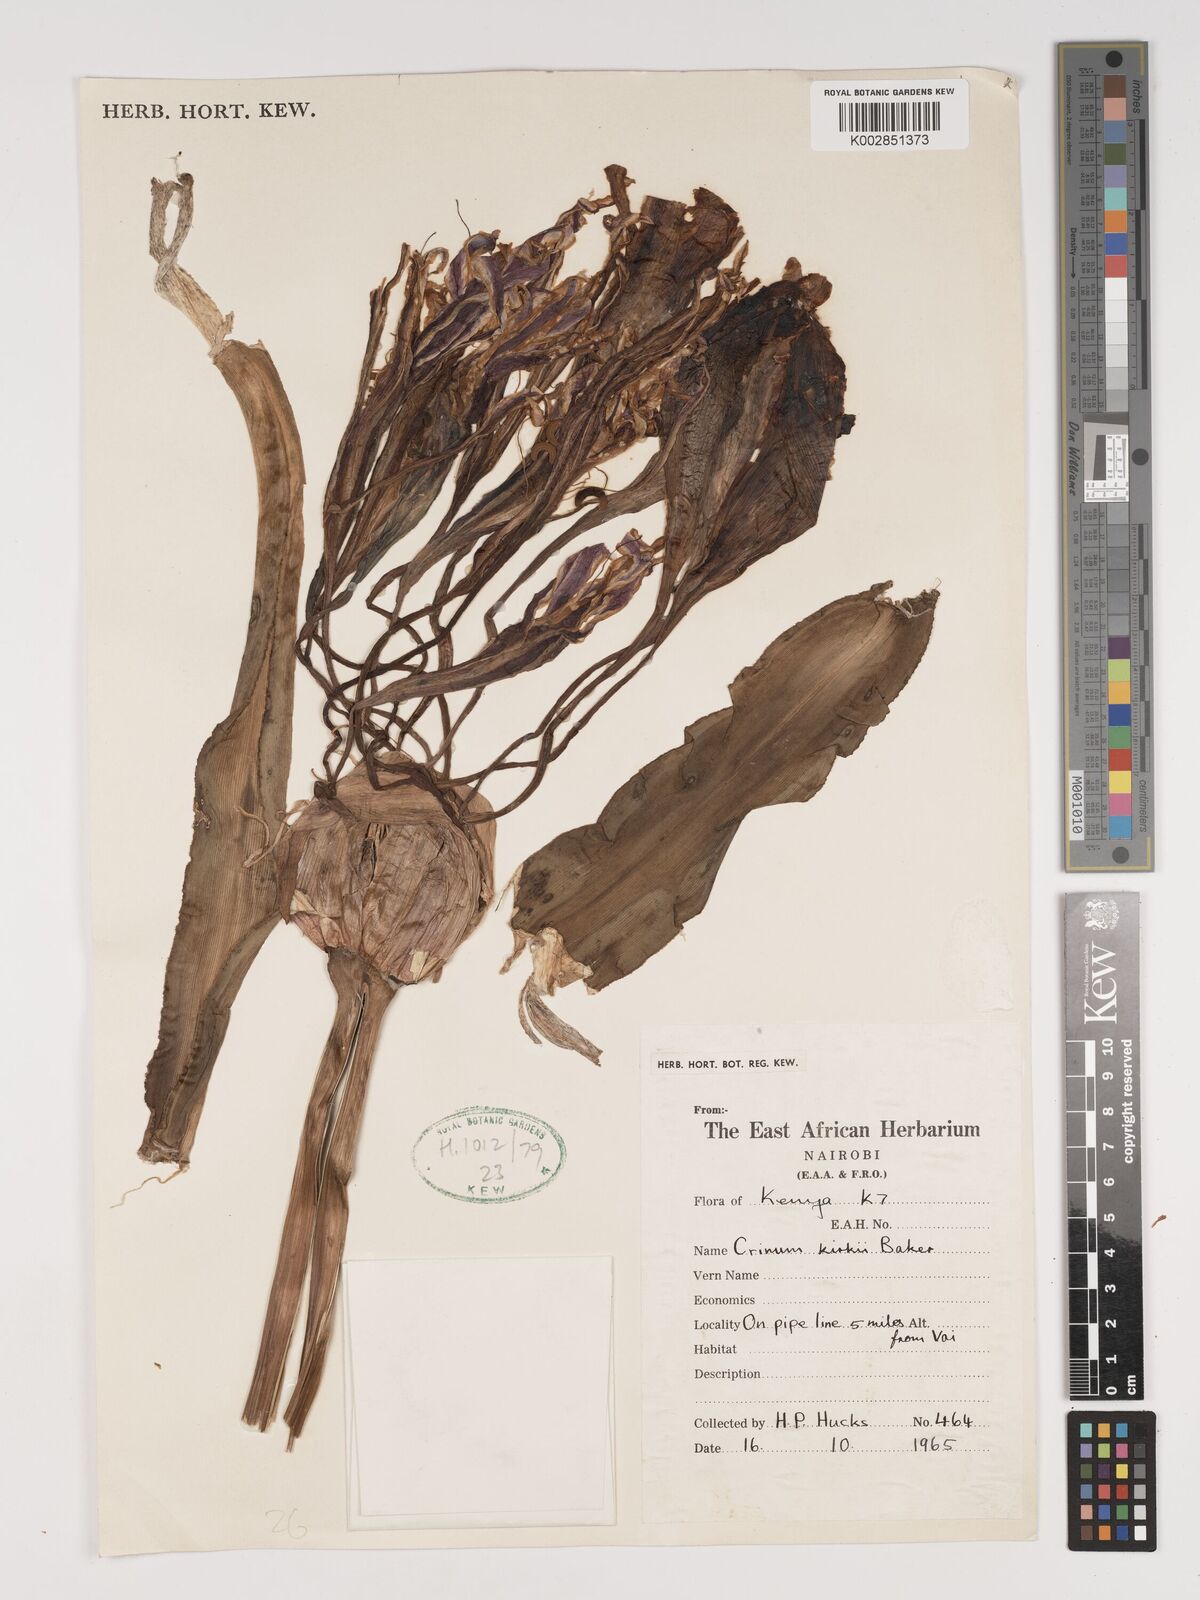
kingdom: Plantae
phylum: Tracheophyta
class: Liliopsida
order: Asparagales
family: Amaryllidaceae
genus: Crinum
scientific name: Crinum kirkii
